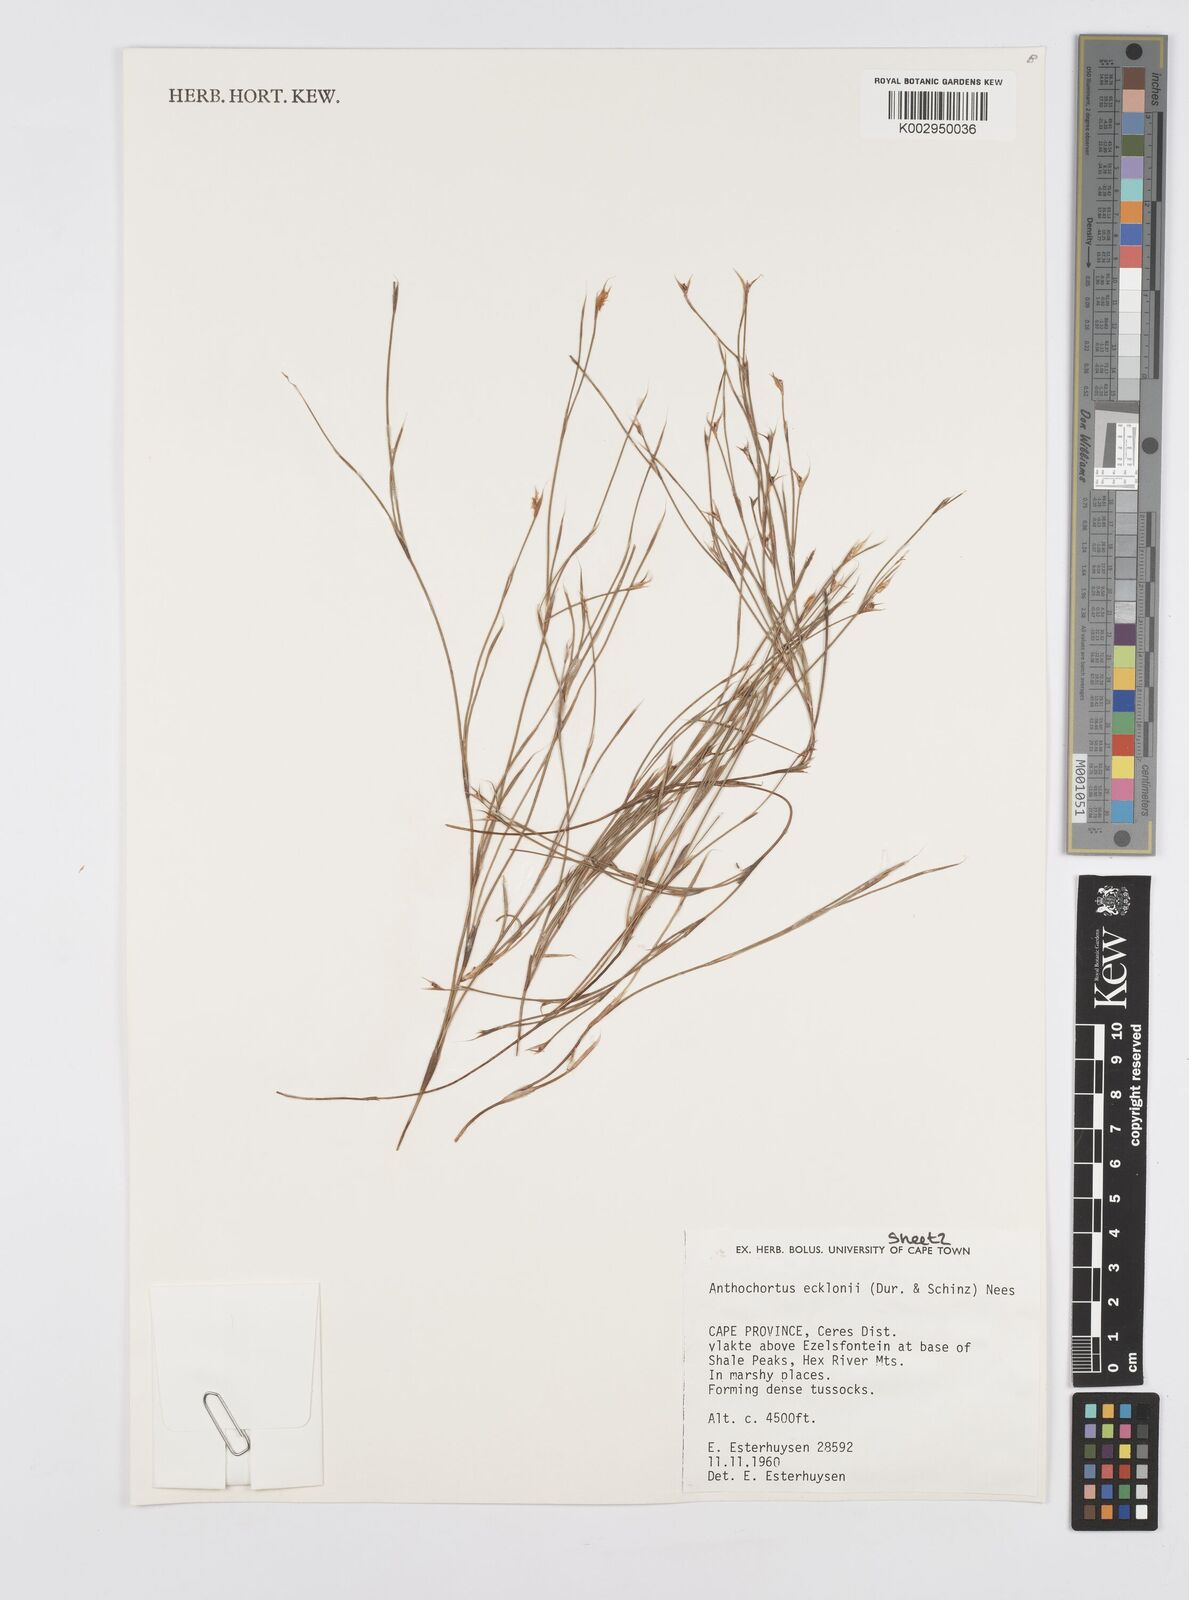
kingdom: Plantae
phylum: Tracheophyta
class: Liliopsida
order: Poales
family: Restionaceae
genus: Anthochortus
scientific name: Anthochortus ecklonii
